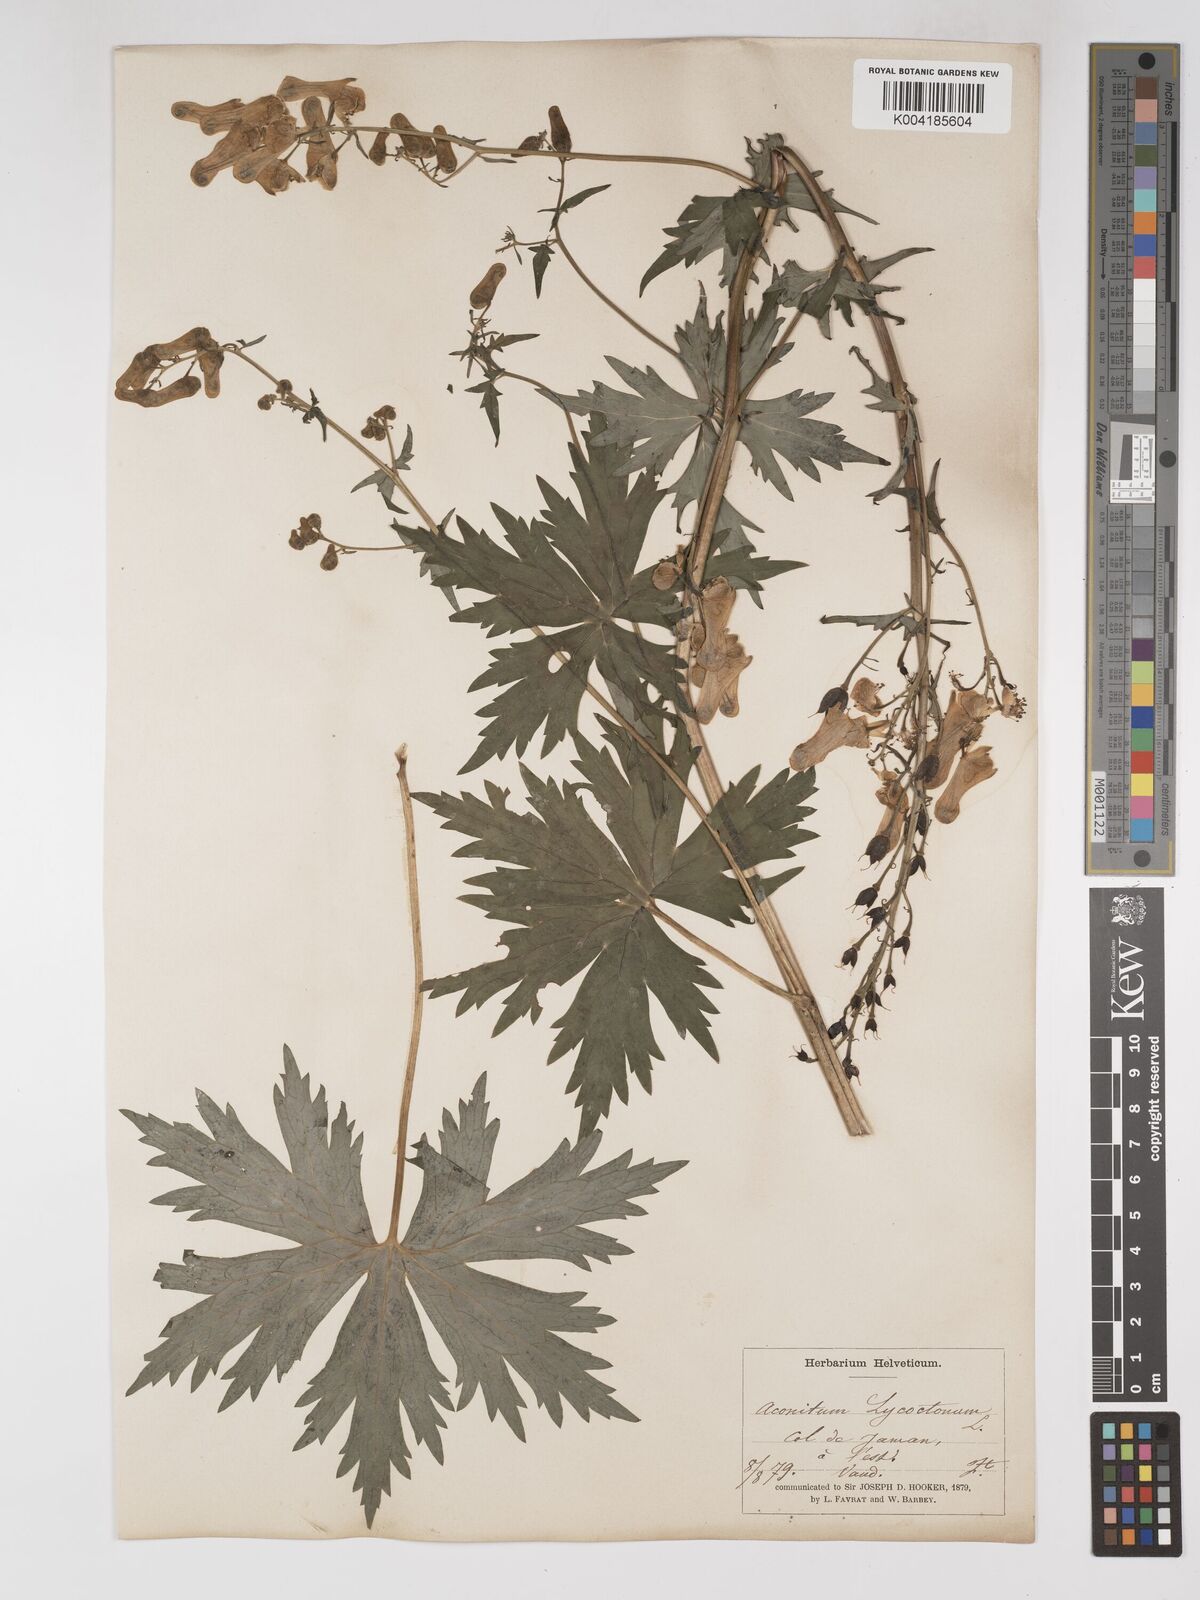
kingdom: Plantae
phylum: Tracheophyta
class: Magnoliopsida
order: Ranunculales
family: Ranunculaceae
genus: Aconitum
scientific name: Aconitum lycoctonum
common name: Wolf's-bane
